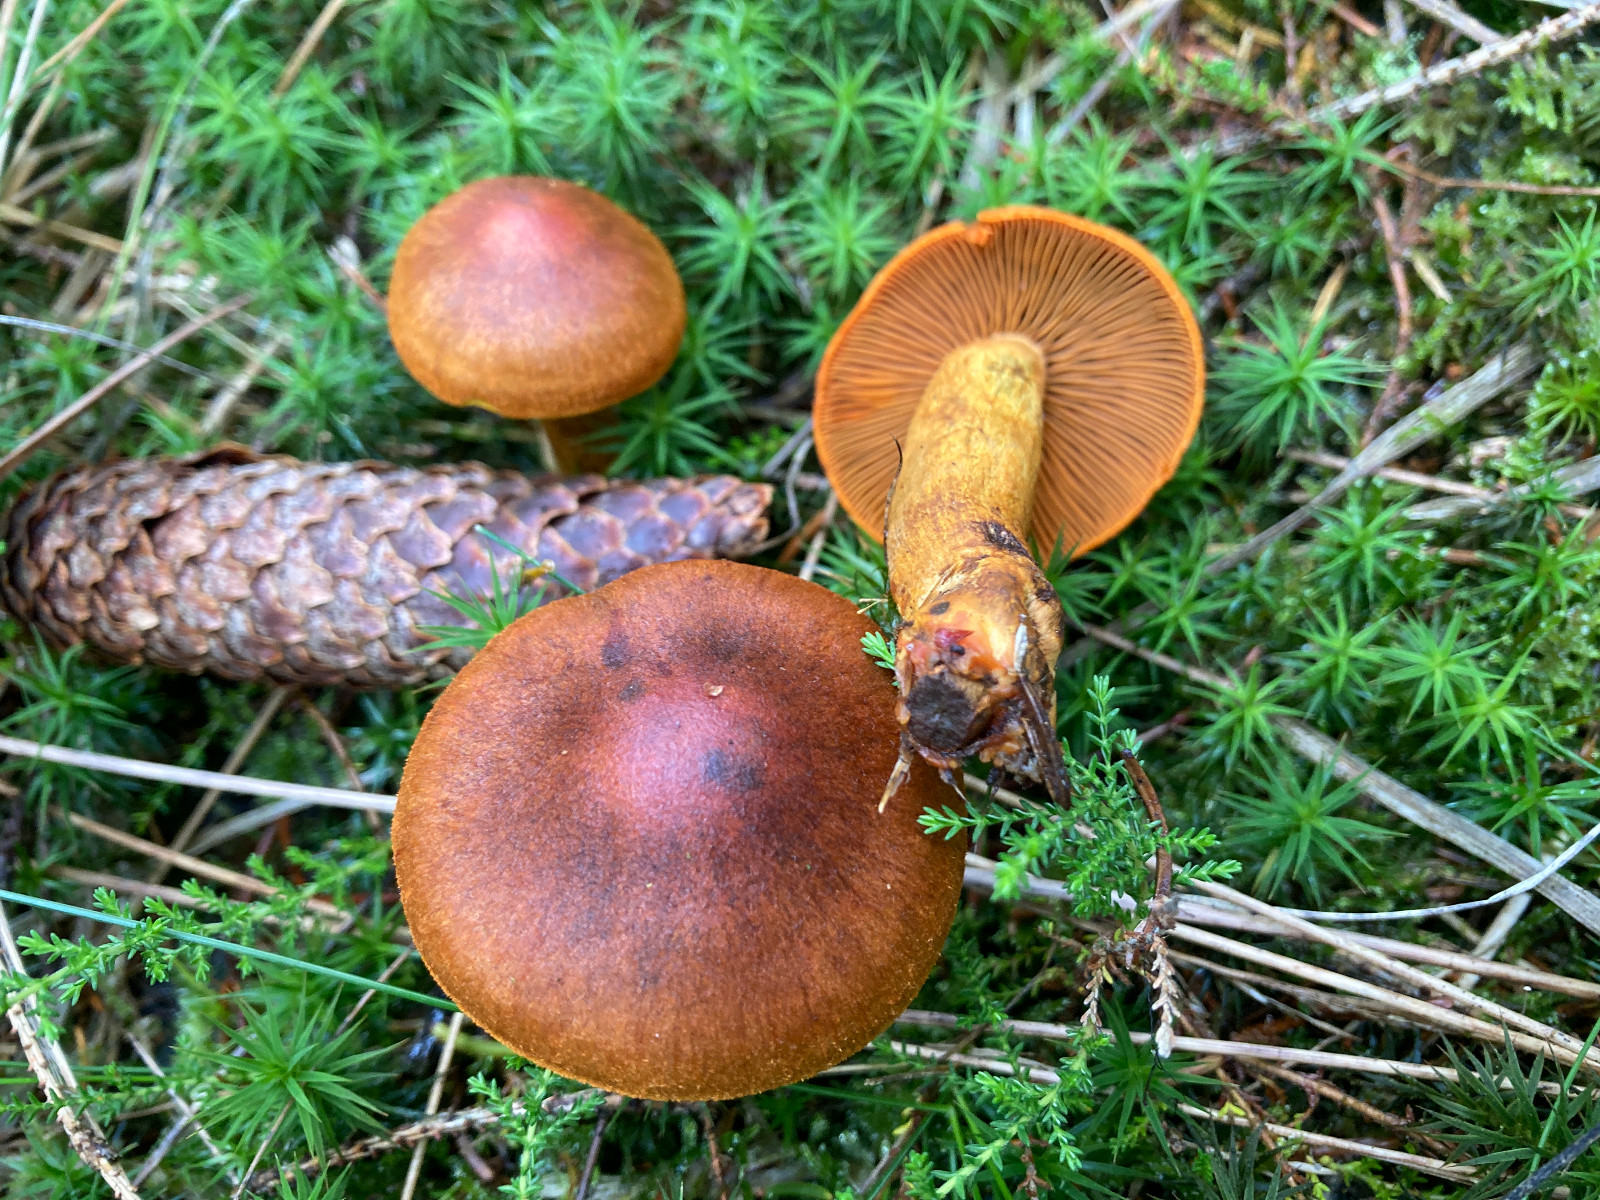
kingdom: Fungi
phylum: Basidiomycota
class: Agaricomycetes
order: Agaricales
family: Cortinariaceae
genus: Cortinarius
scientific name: Cortinarius malicorius
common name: grønkødet slørhat
